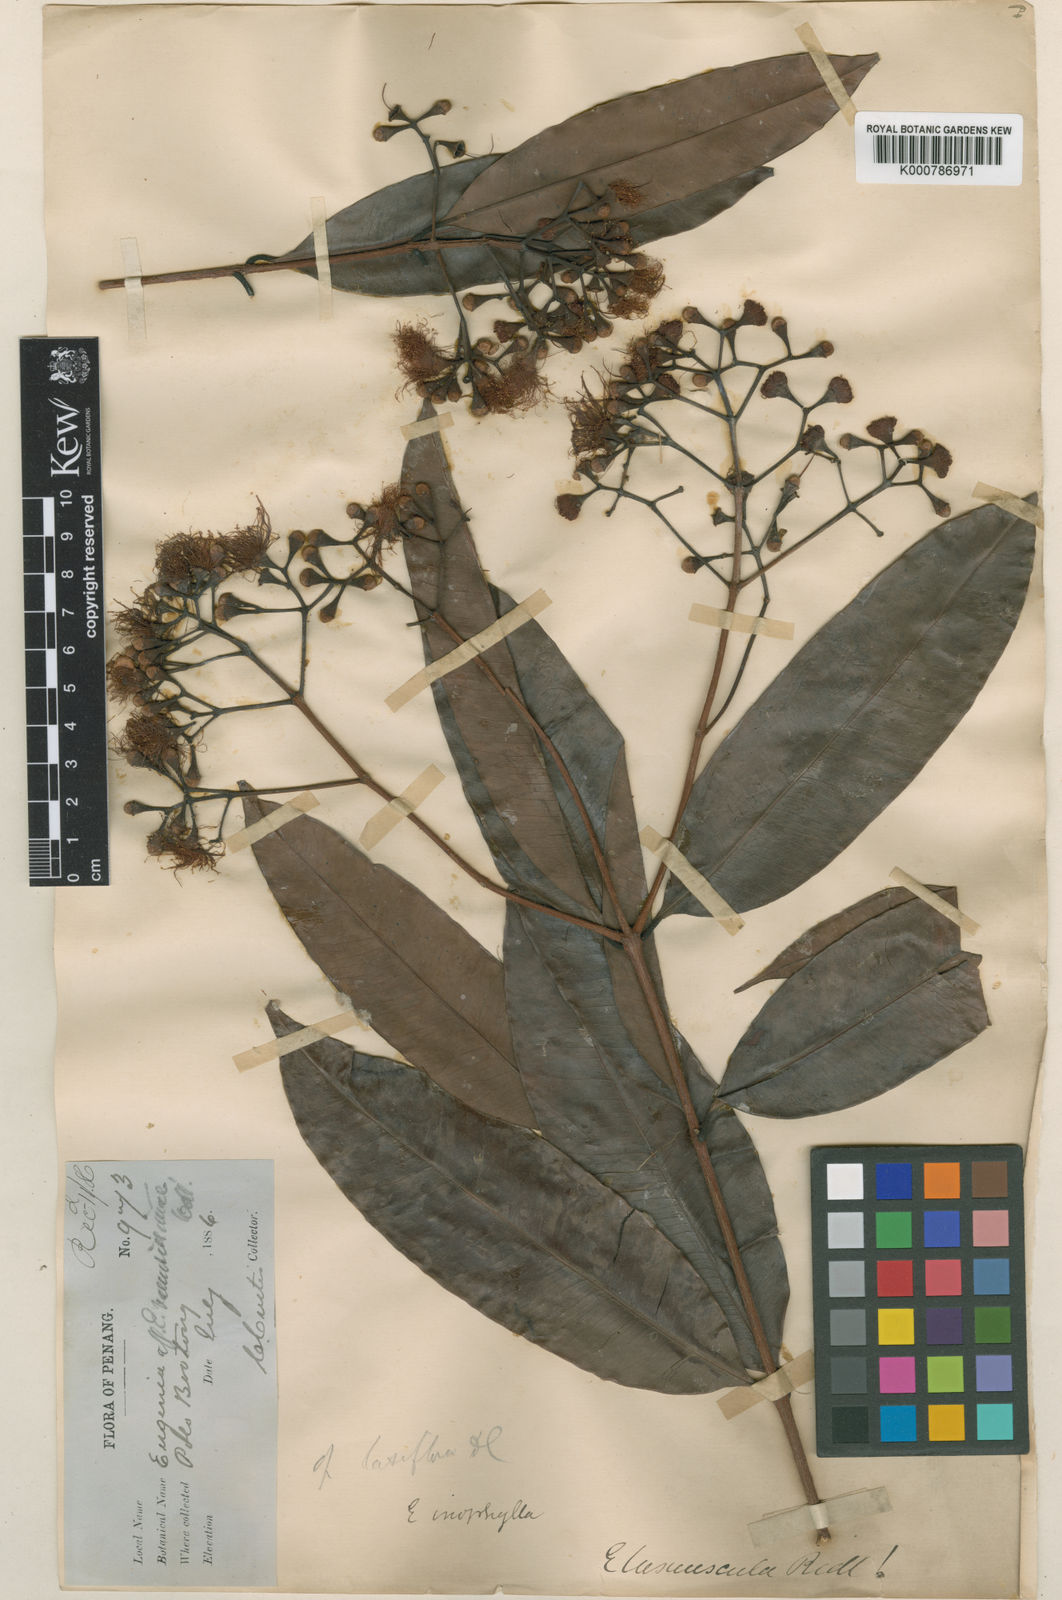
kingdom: Plantae
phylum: Tracheophyta
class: Magnoliopsida
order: Myrtales
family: Myrtaceae
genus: Syzygium
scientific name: Syzygium
